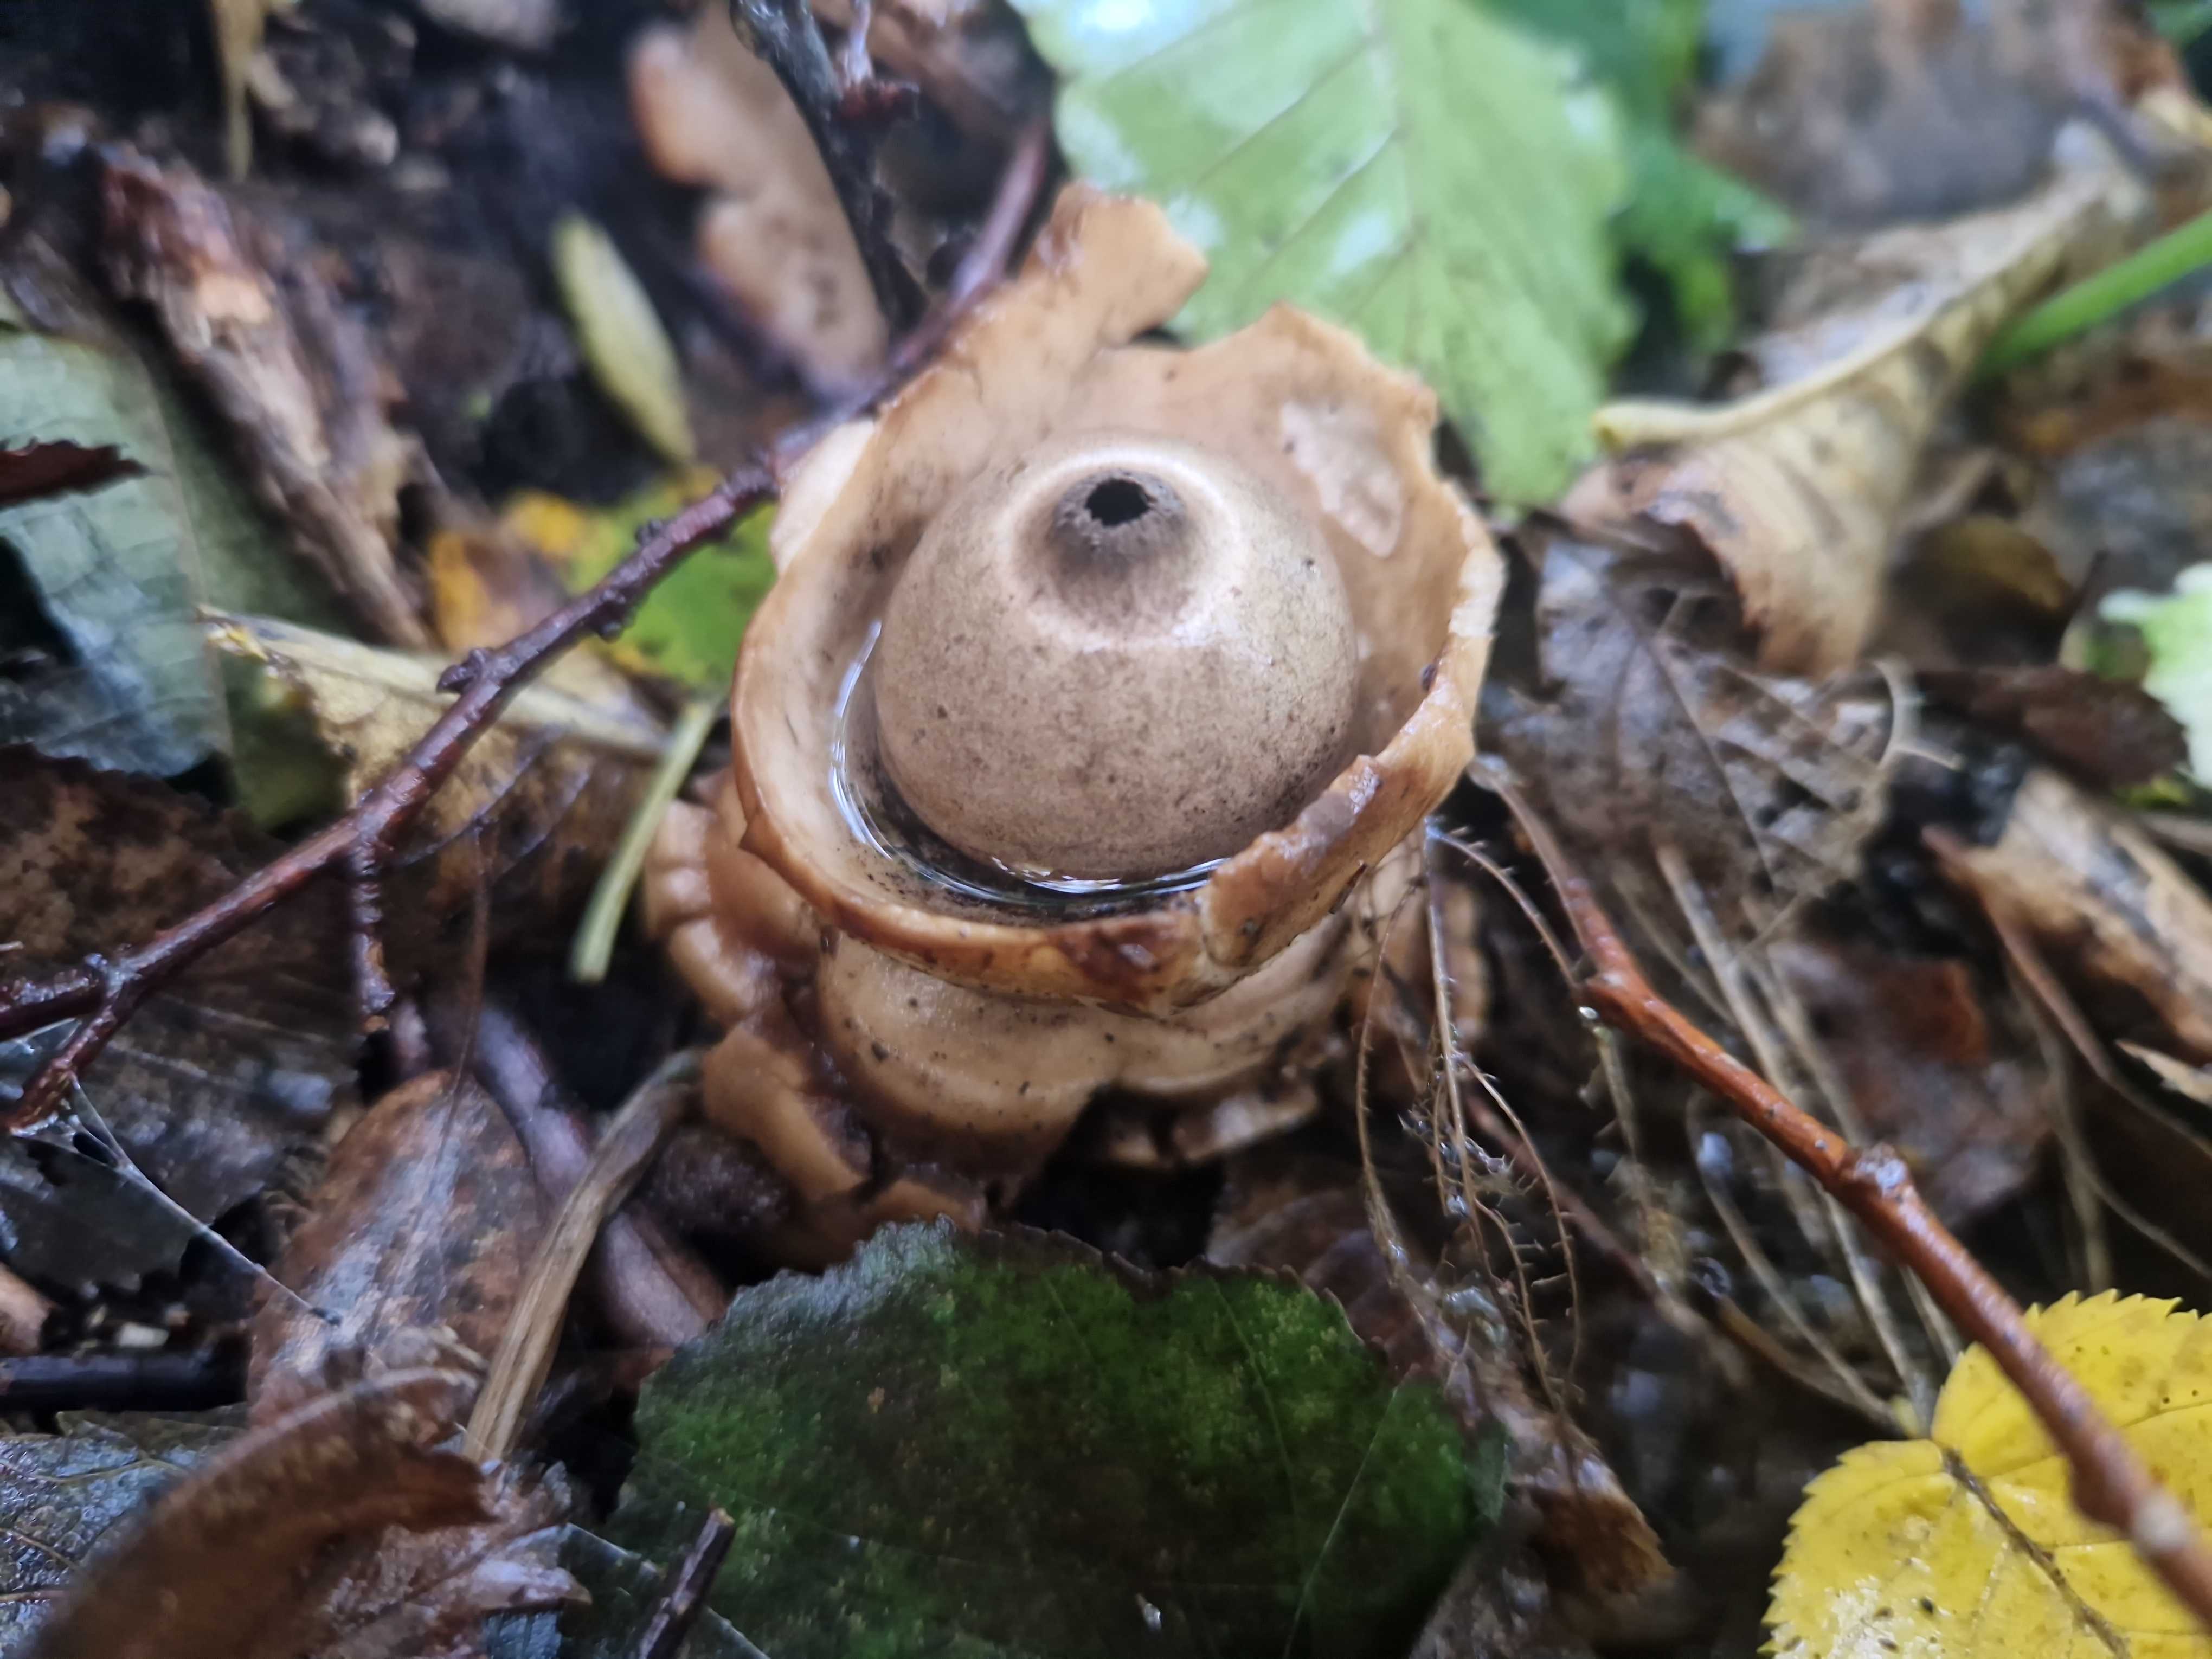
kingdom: Fungi
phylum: Basidiomycota
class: Agaricomycetes
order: Geastrales
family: Geastraceae
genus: Geastrum
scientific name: Geastrum michelianum
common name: kødet stjernebold
